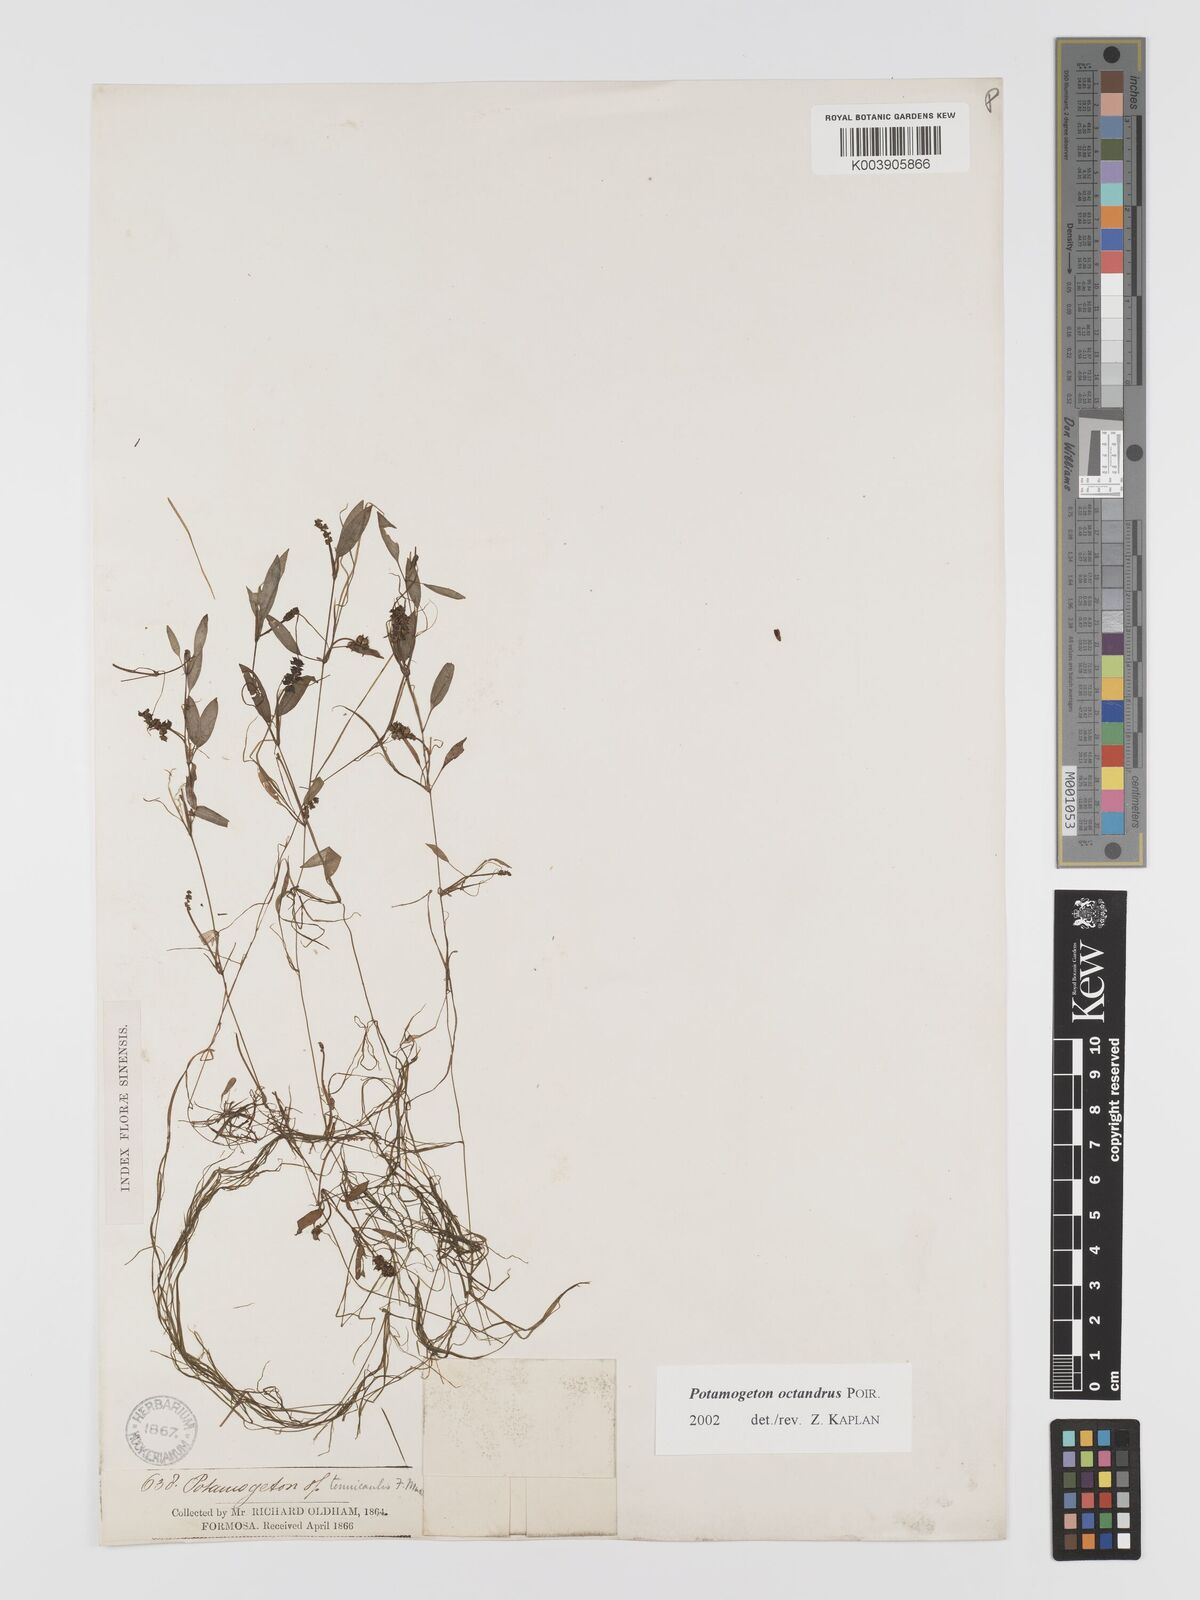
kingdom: Plantae
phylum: Tracheophyta
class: Liliopsida
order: Alismatales
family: Potamogetonaceae
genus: Potamogeton
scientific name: Potamogeton octandrus
